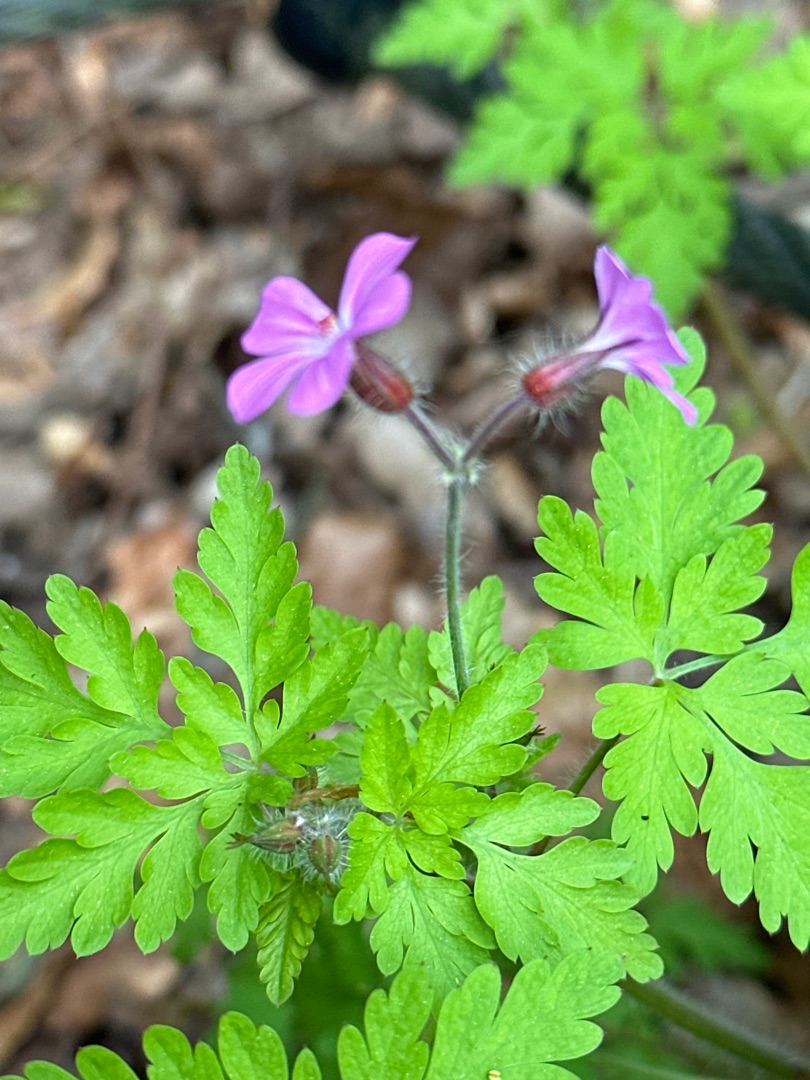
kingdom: Plantae
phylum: Tracheophyta
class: Magnoliopsida
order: Geraniales
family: Geraniaceae
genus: Geranium
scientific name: Geranium robertianum
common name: Stinkende storkenæb
